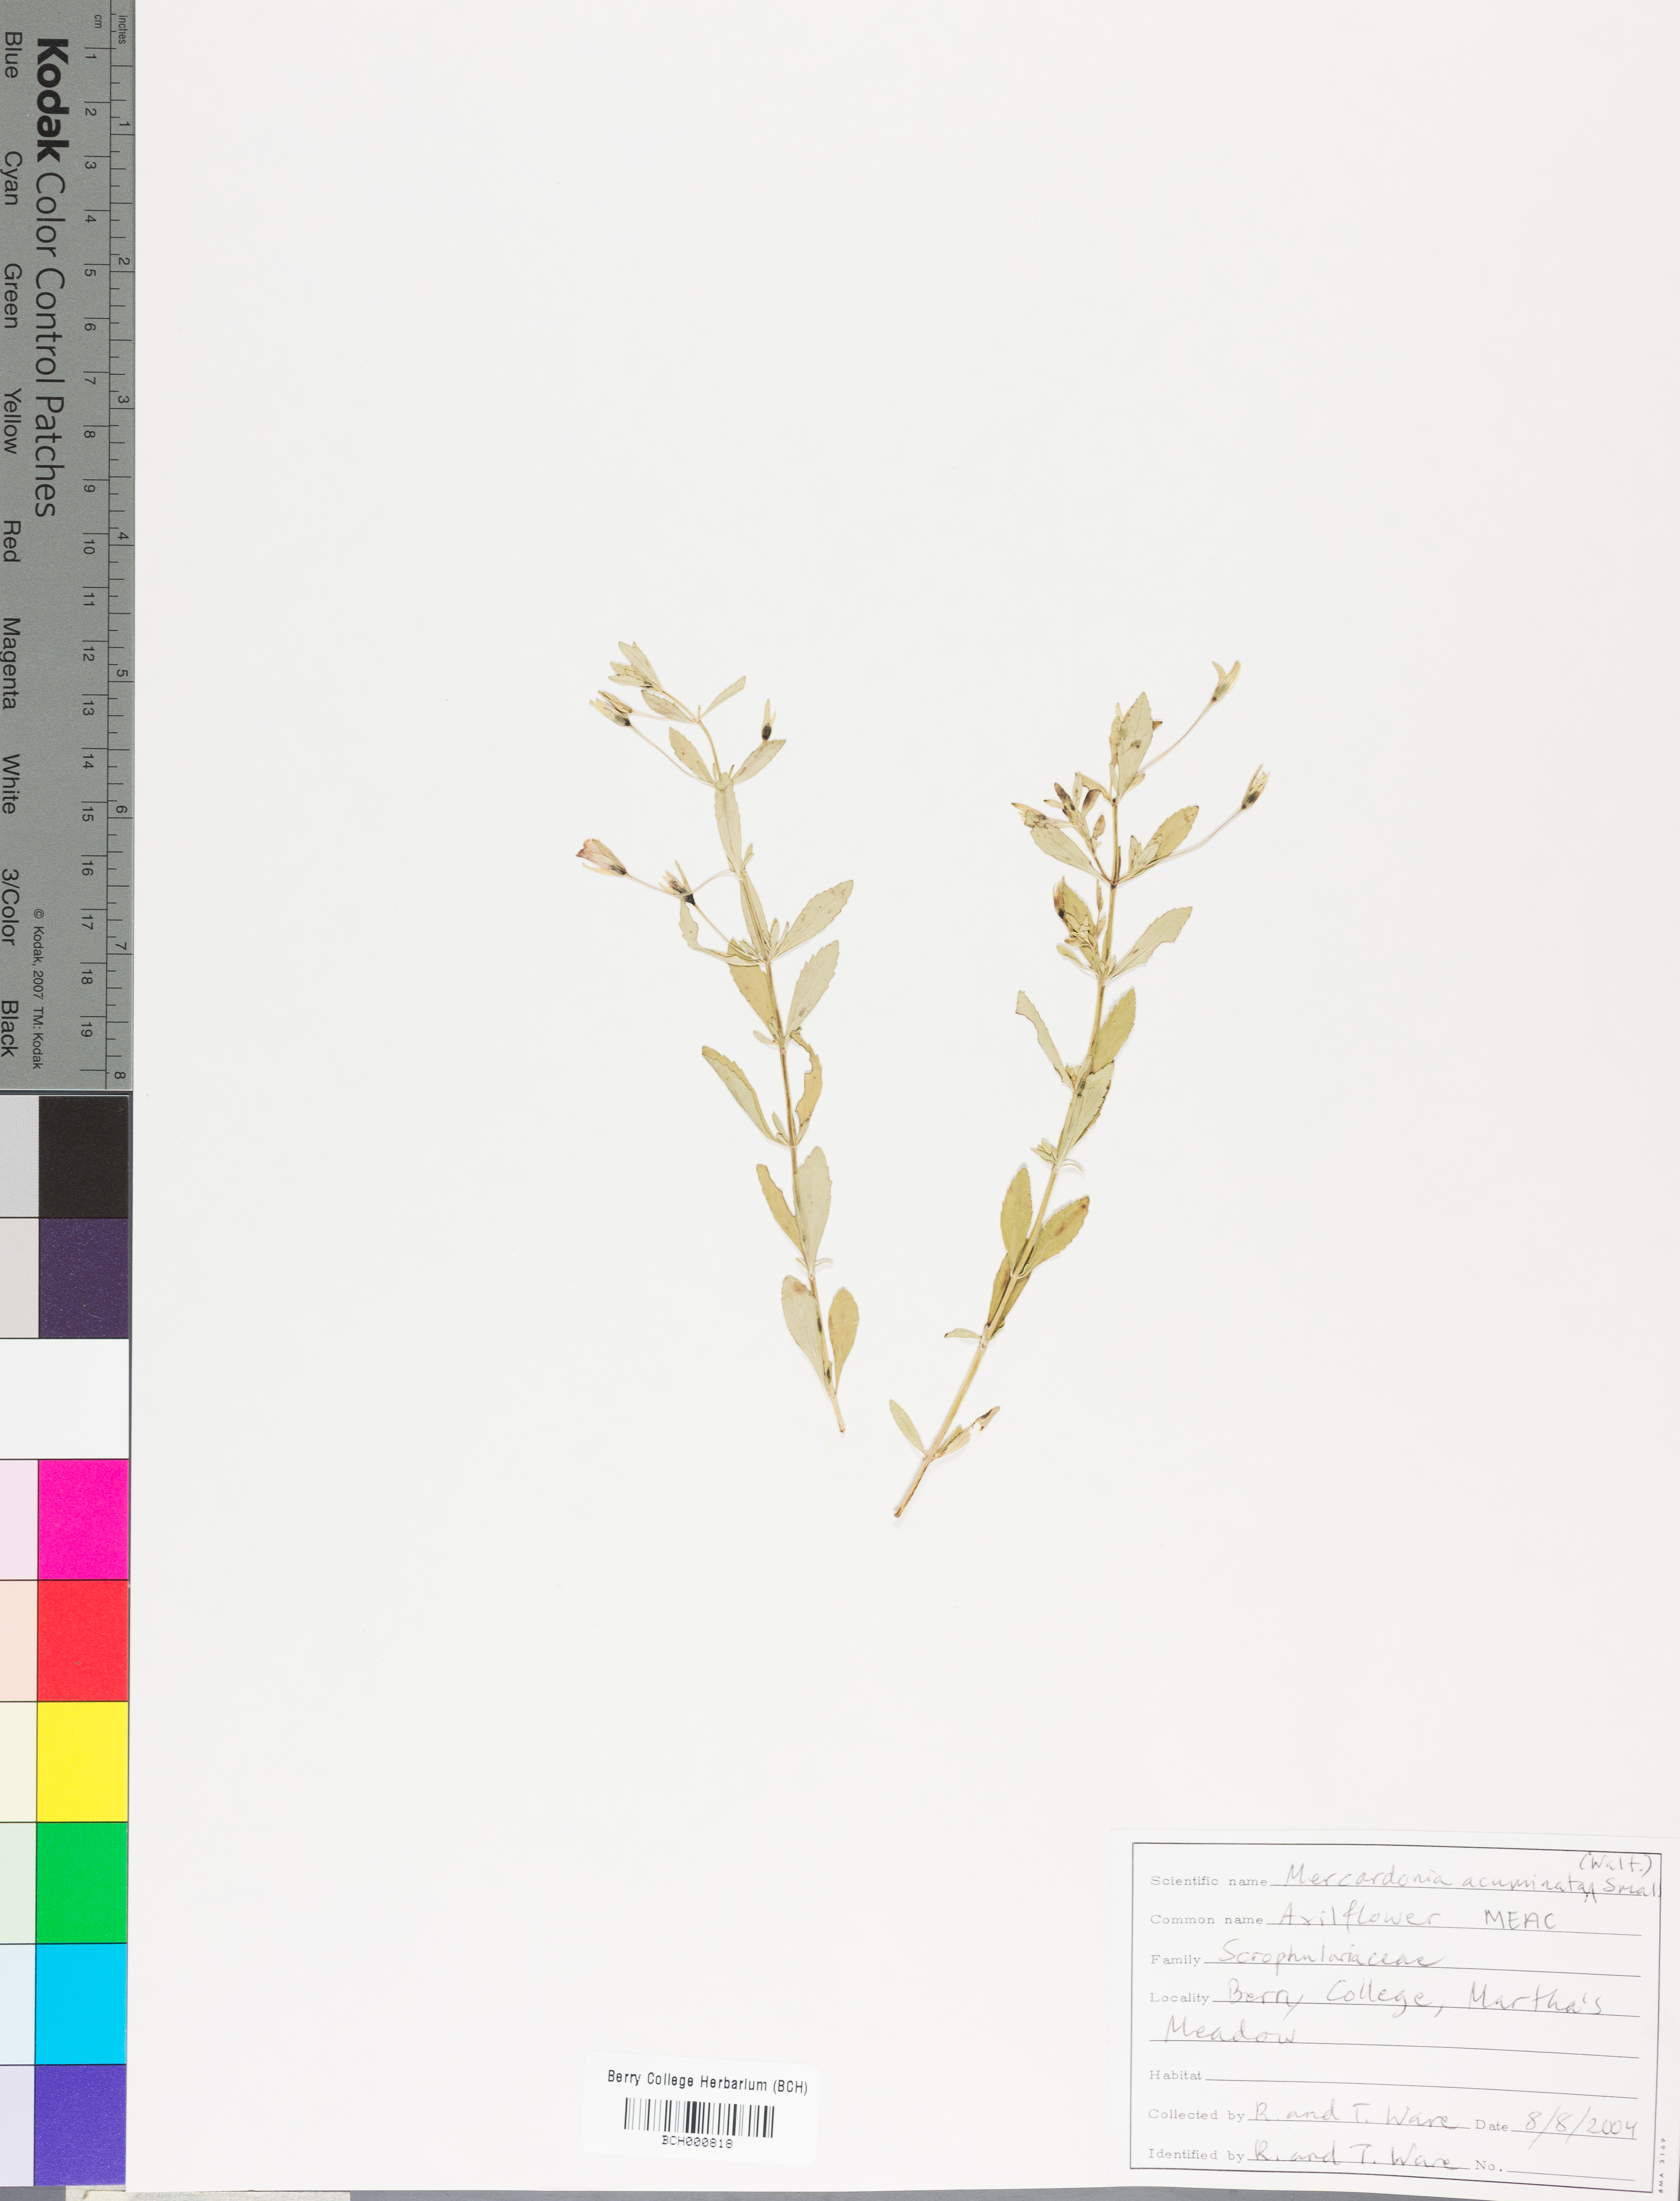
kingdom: Plantae
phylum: Tracheophyta
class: Magnoliopsida
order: Lamiales
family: Plantaginaceae
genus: Mecardonia
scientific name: Mecardonia acuminata
